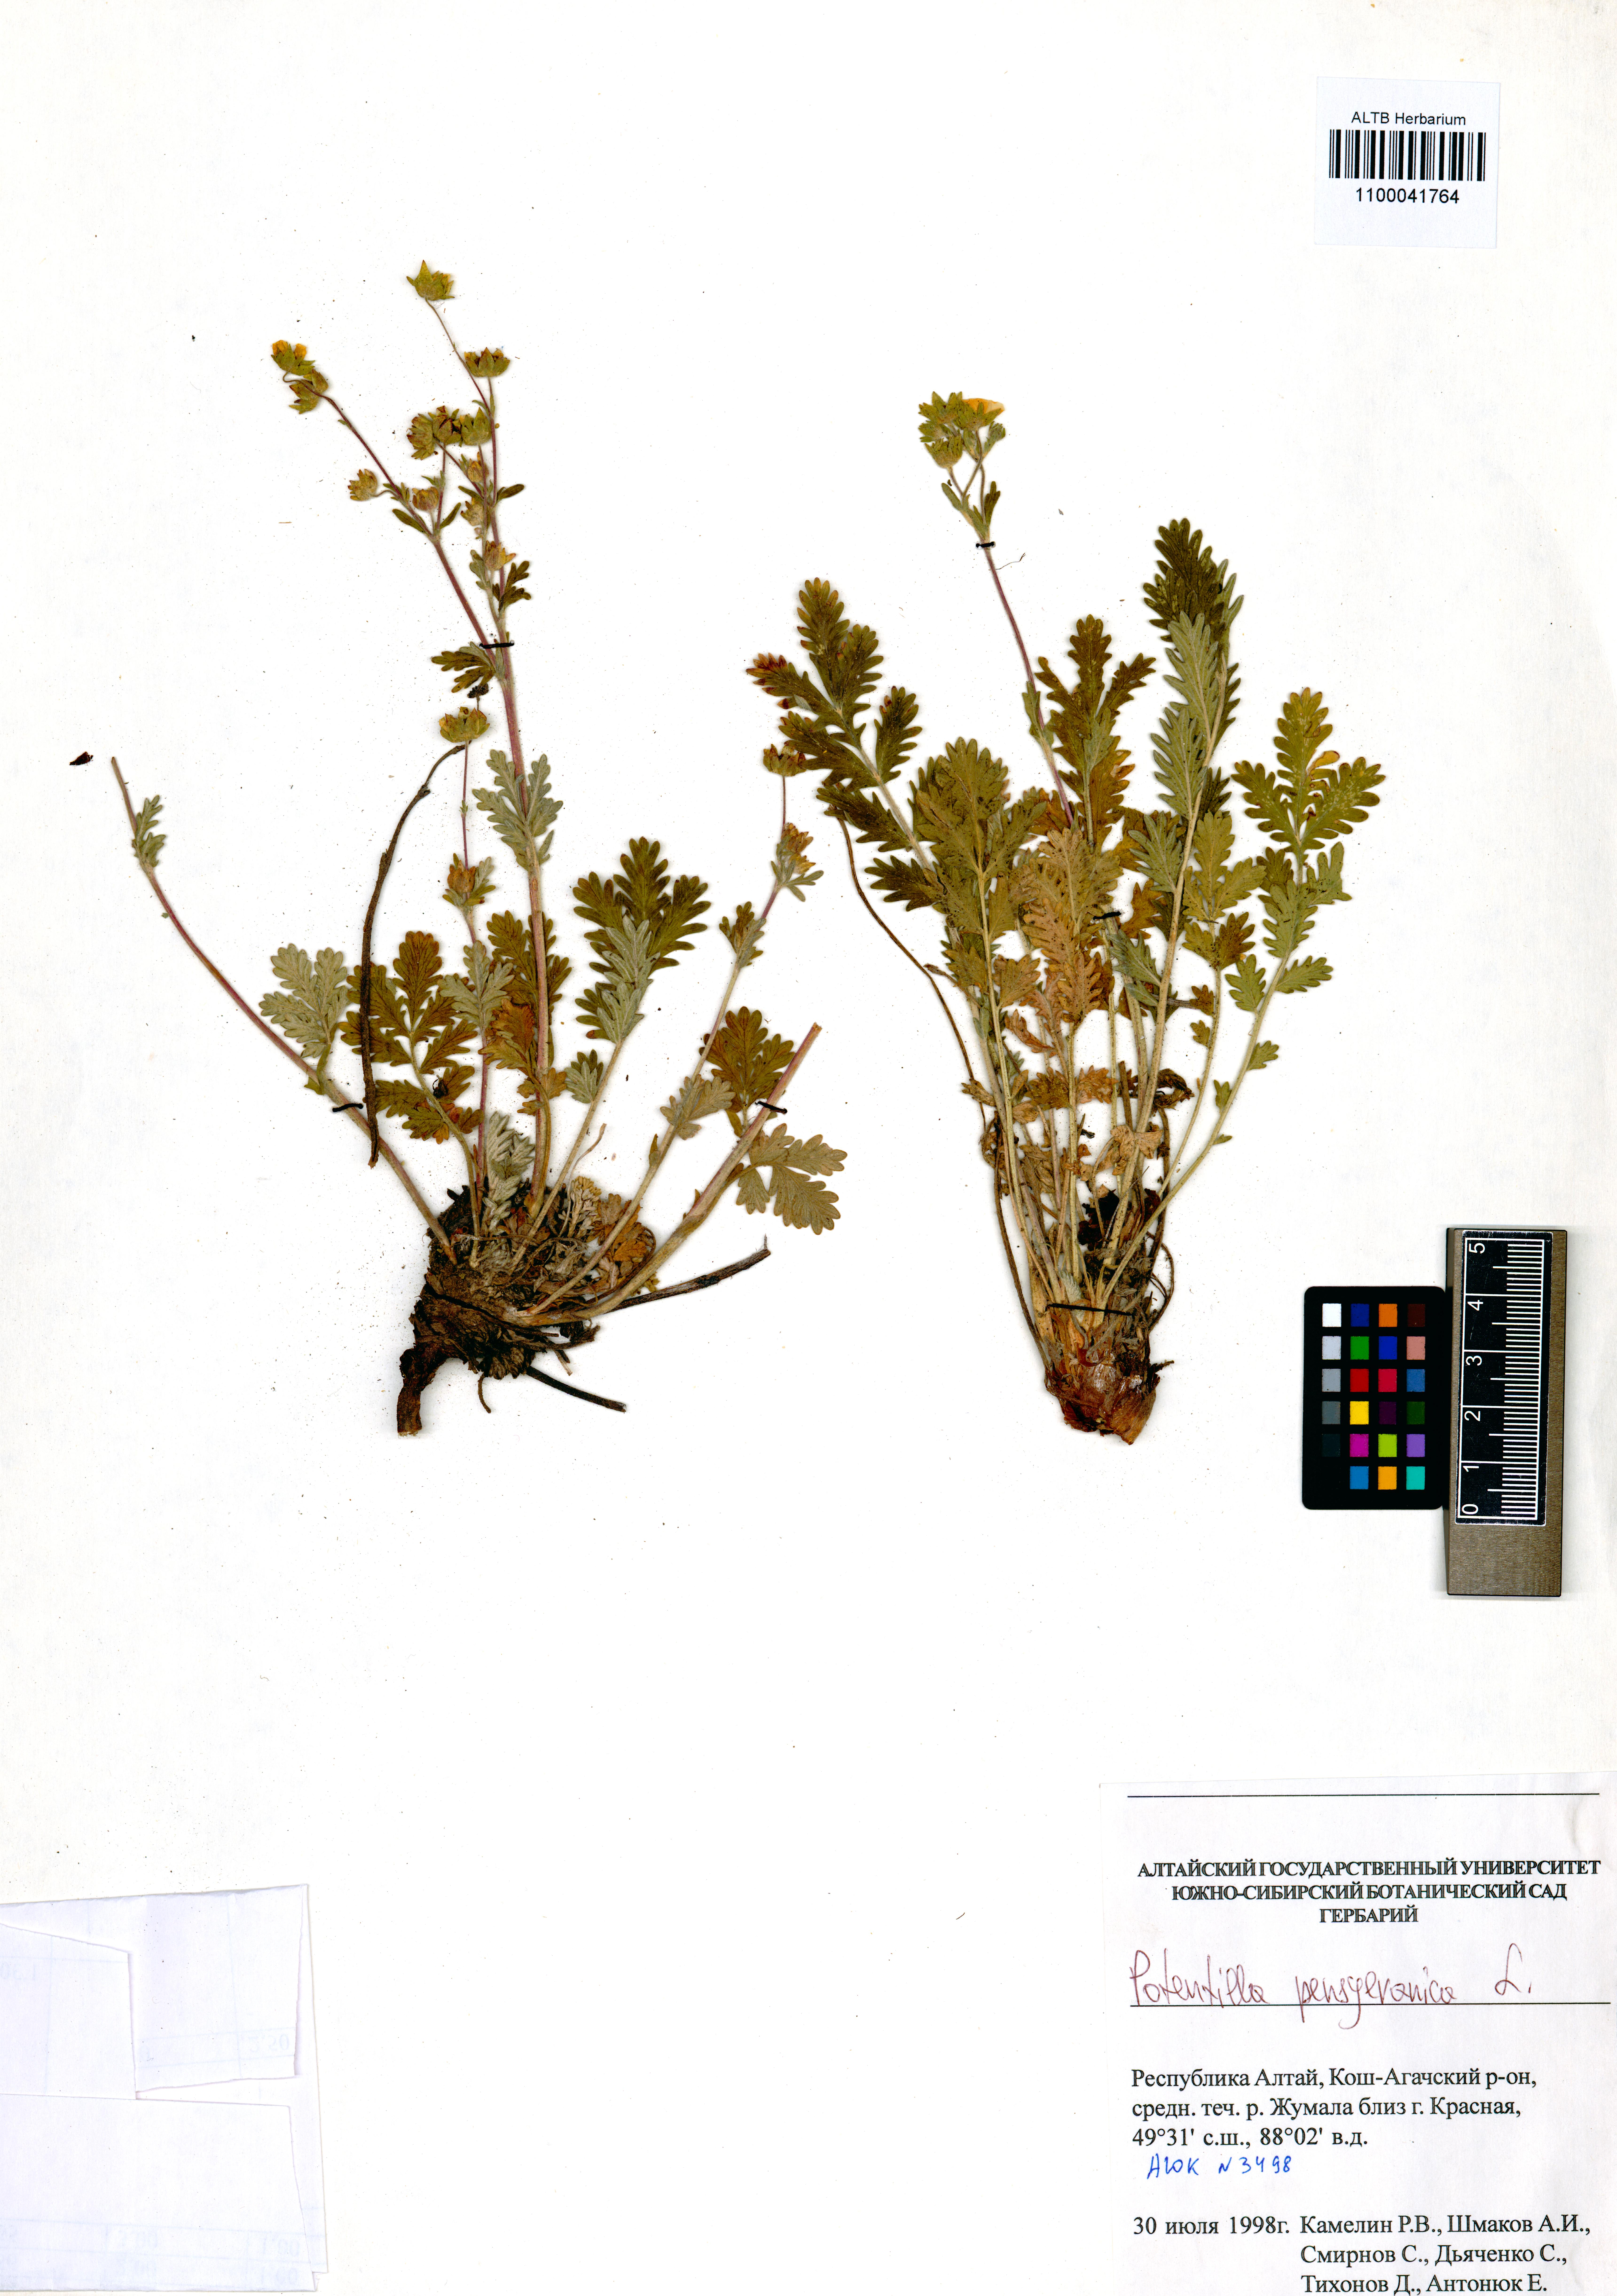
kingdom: Plantae
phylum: Tracheophyta
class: Magnoliopsida
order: Rosales
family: Rosaceae
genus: Potentilla
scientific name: Potentilla pensylvanica
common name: Pennsylvania cinquefoil
